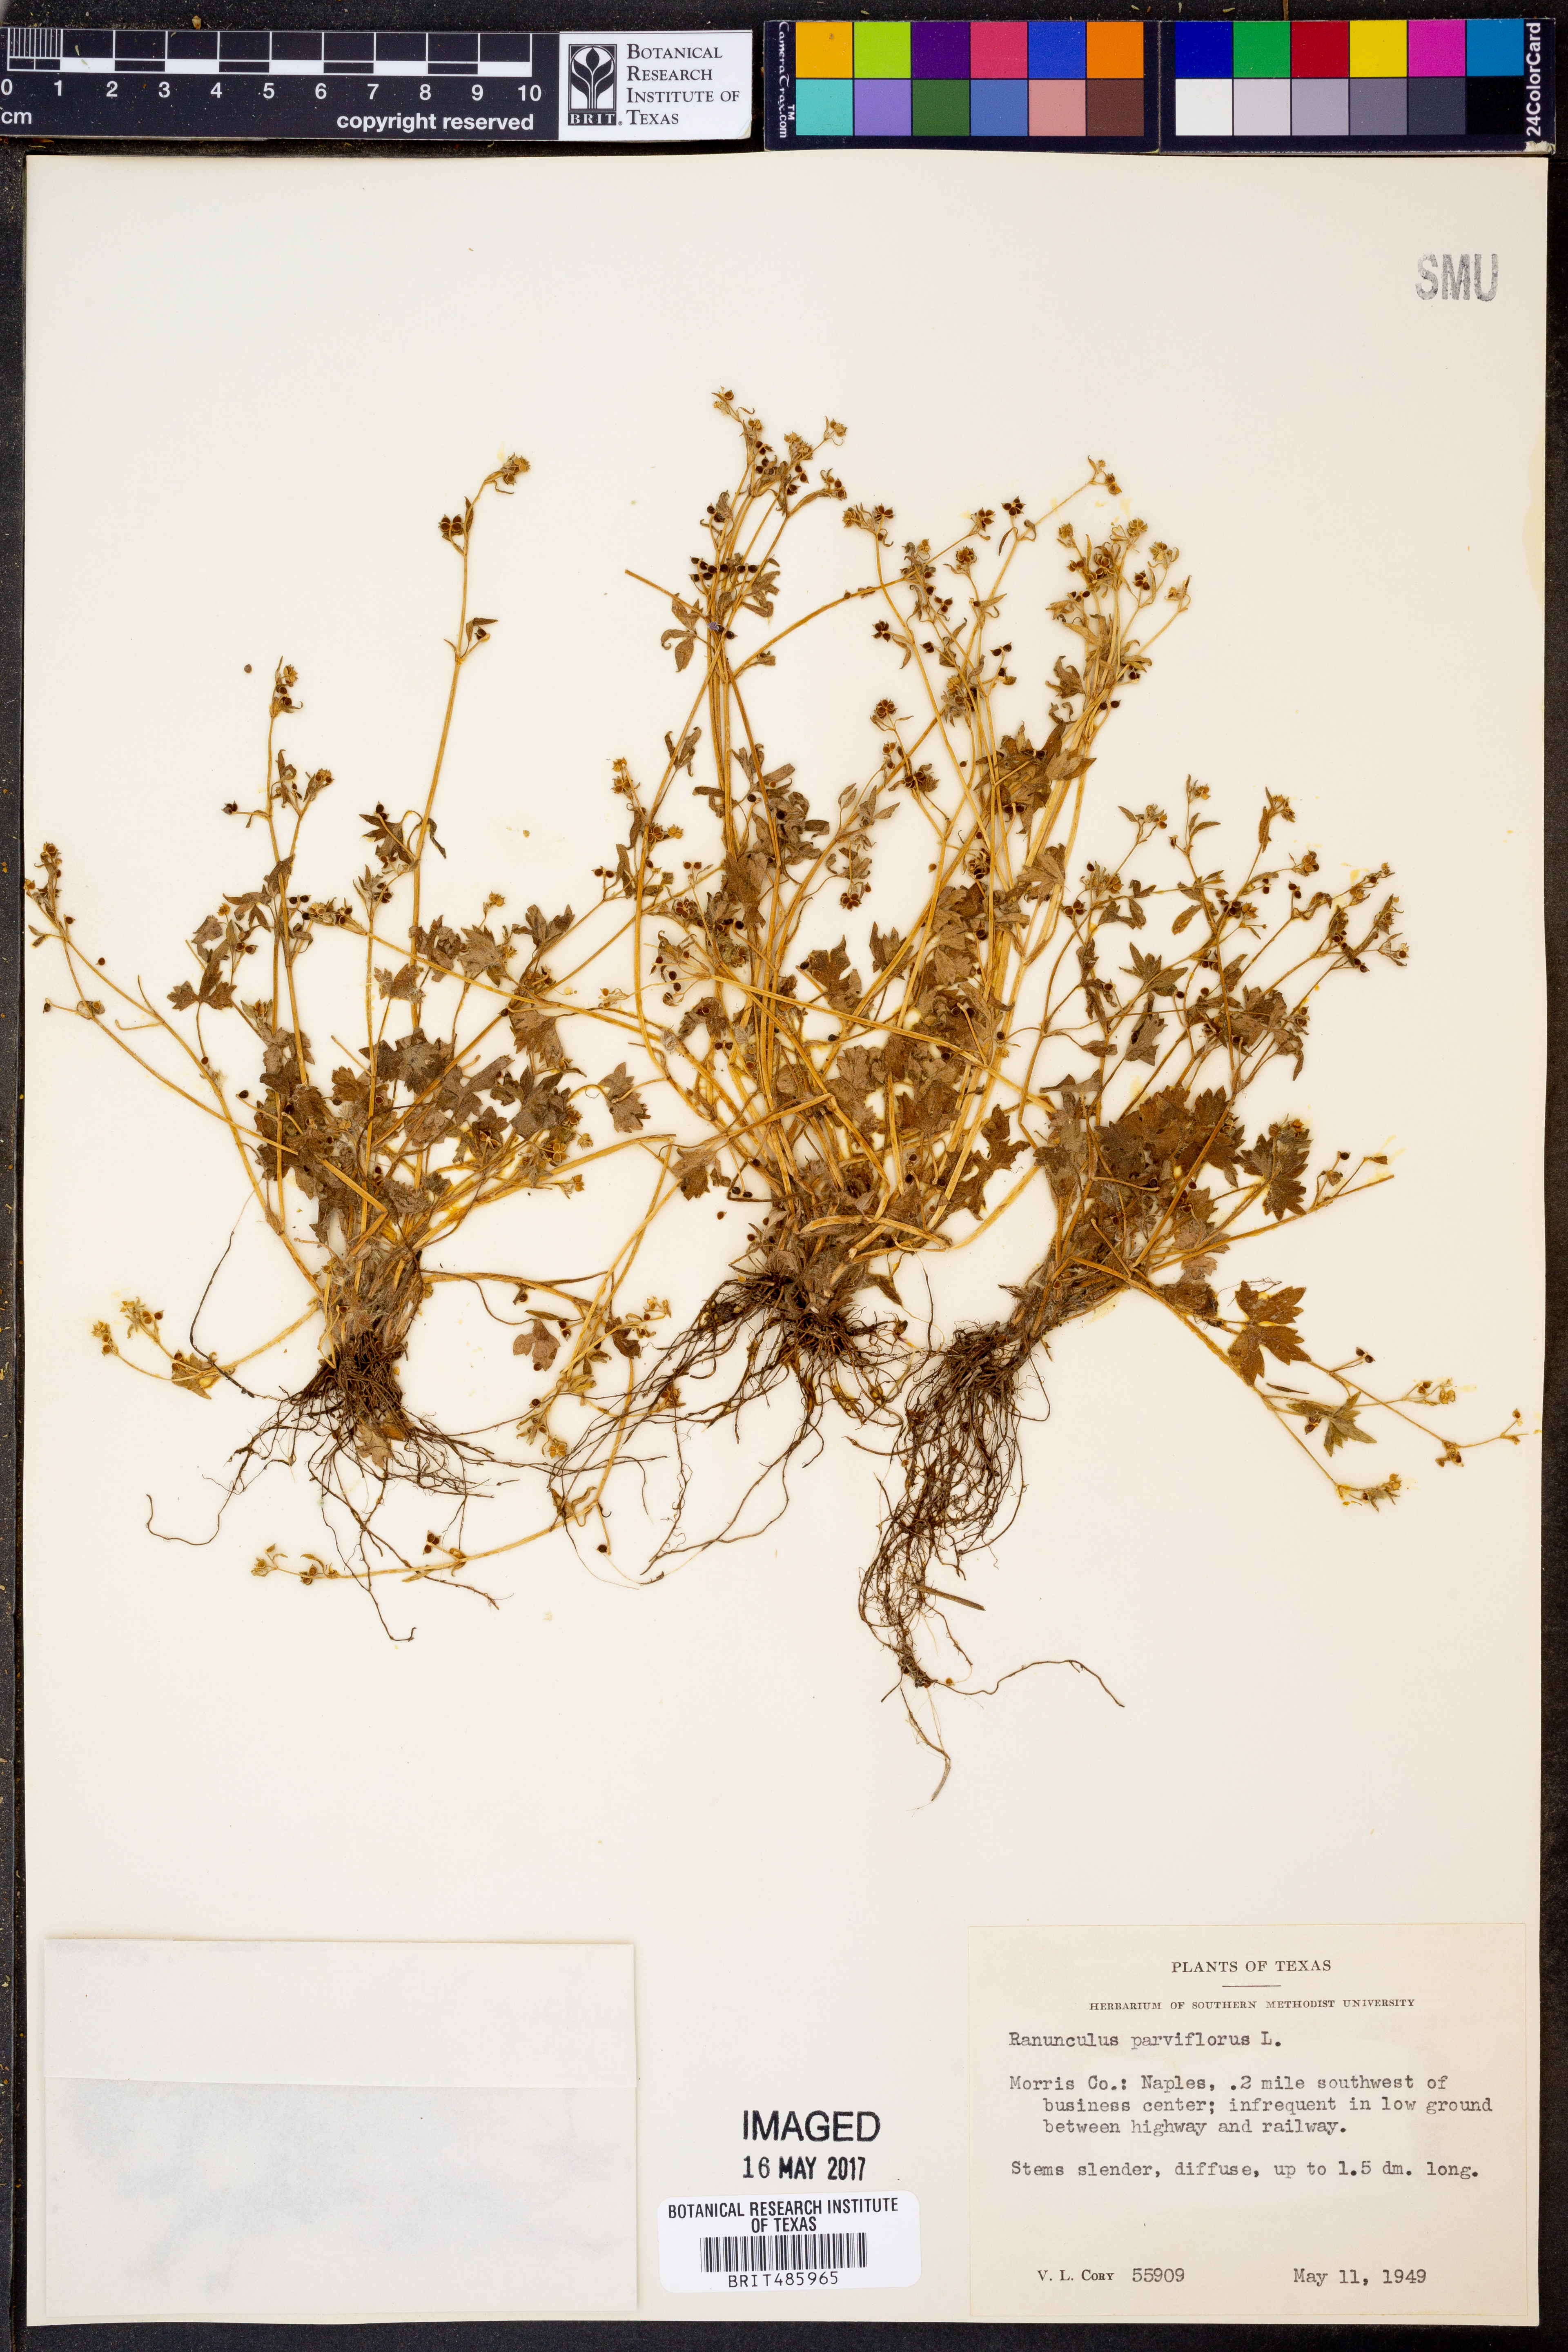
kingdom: Plantae
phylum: Tracheophyta
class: Magnoliopsida
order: Ranunculales
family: Ranunculaceae
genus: Ranunculus
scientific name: Ranunculus parviflorus
